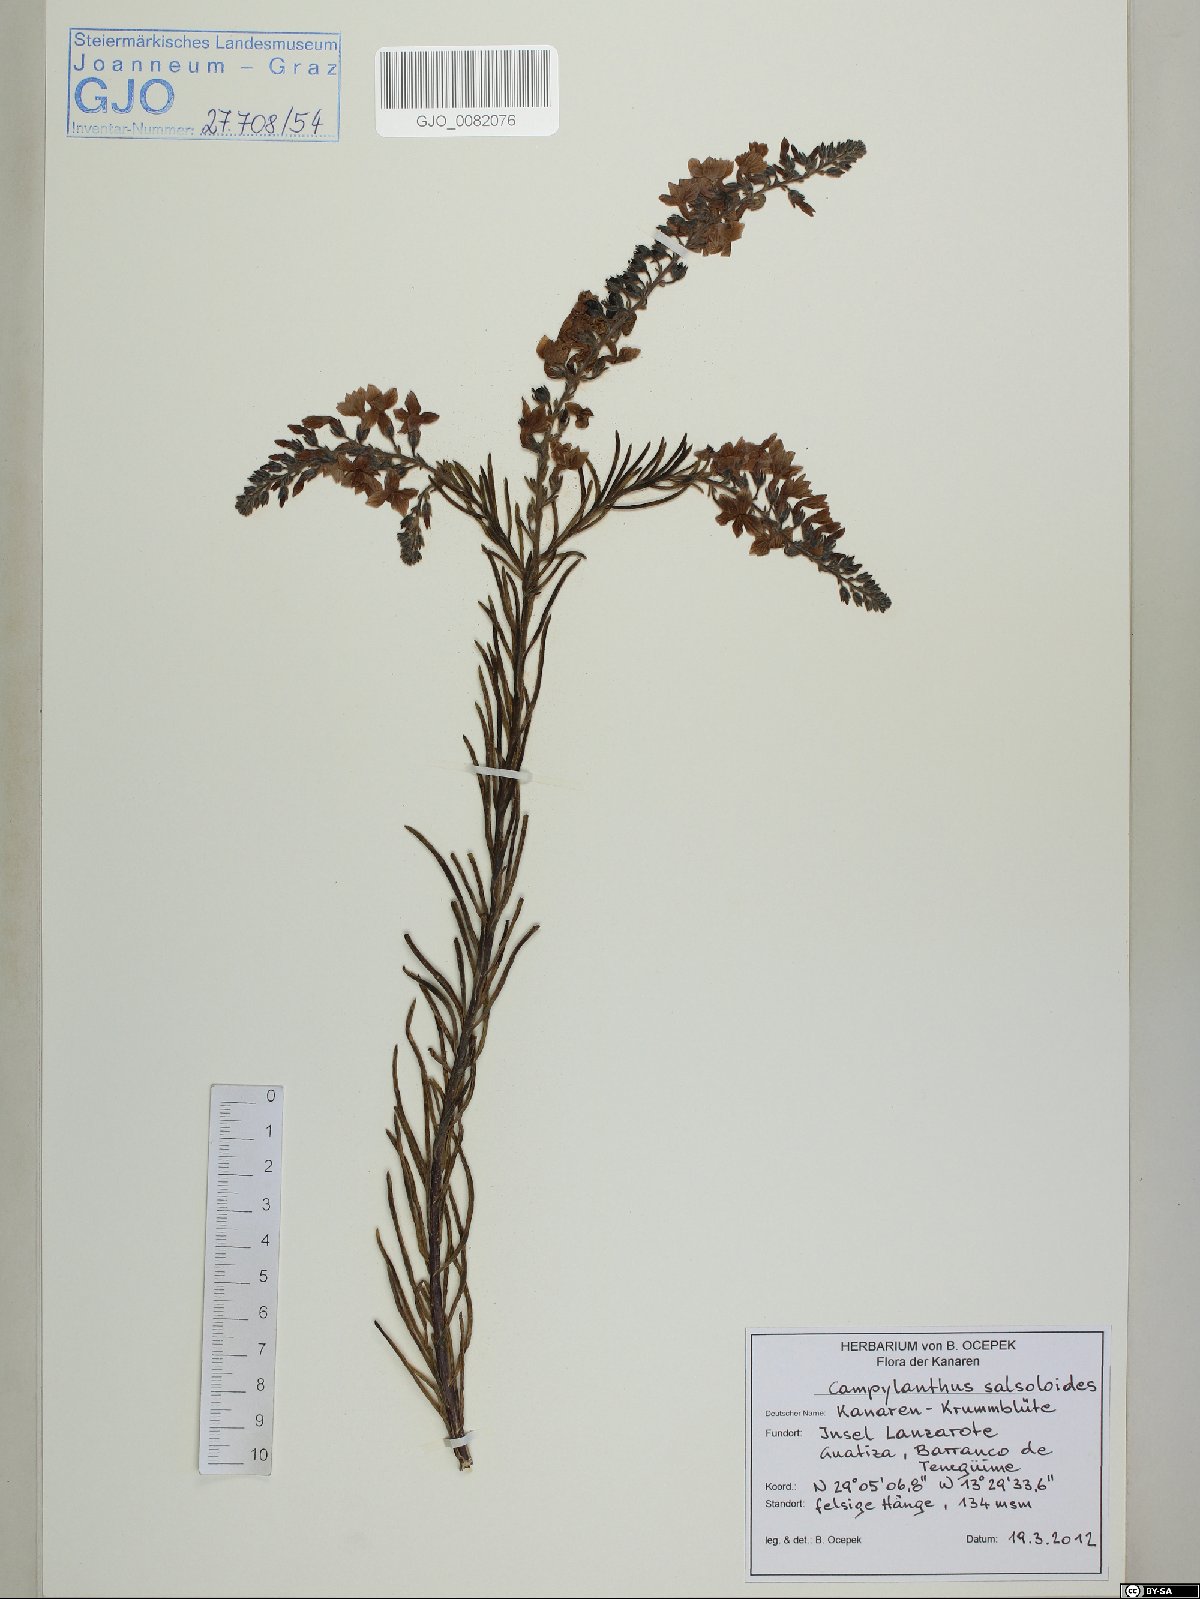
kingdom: Plantae
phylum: Tracheophyta
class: Magnoliopsida
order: Lamiales
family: Plantaginaceae
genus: Campylanthus
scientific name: Campylanthus salsoloides
